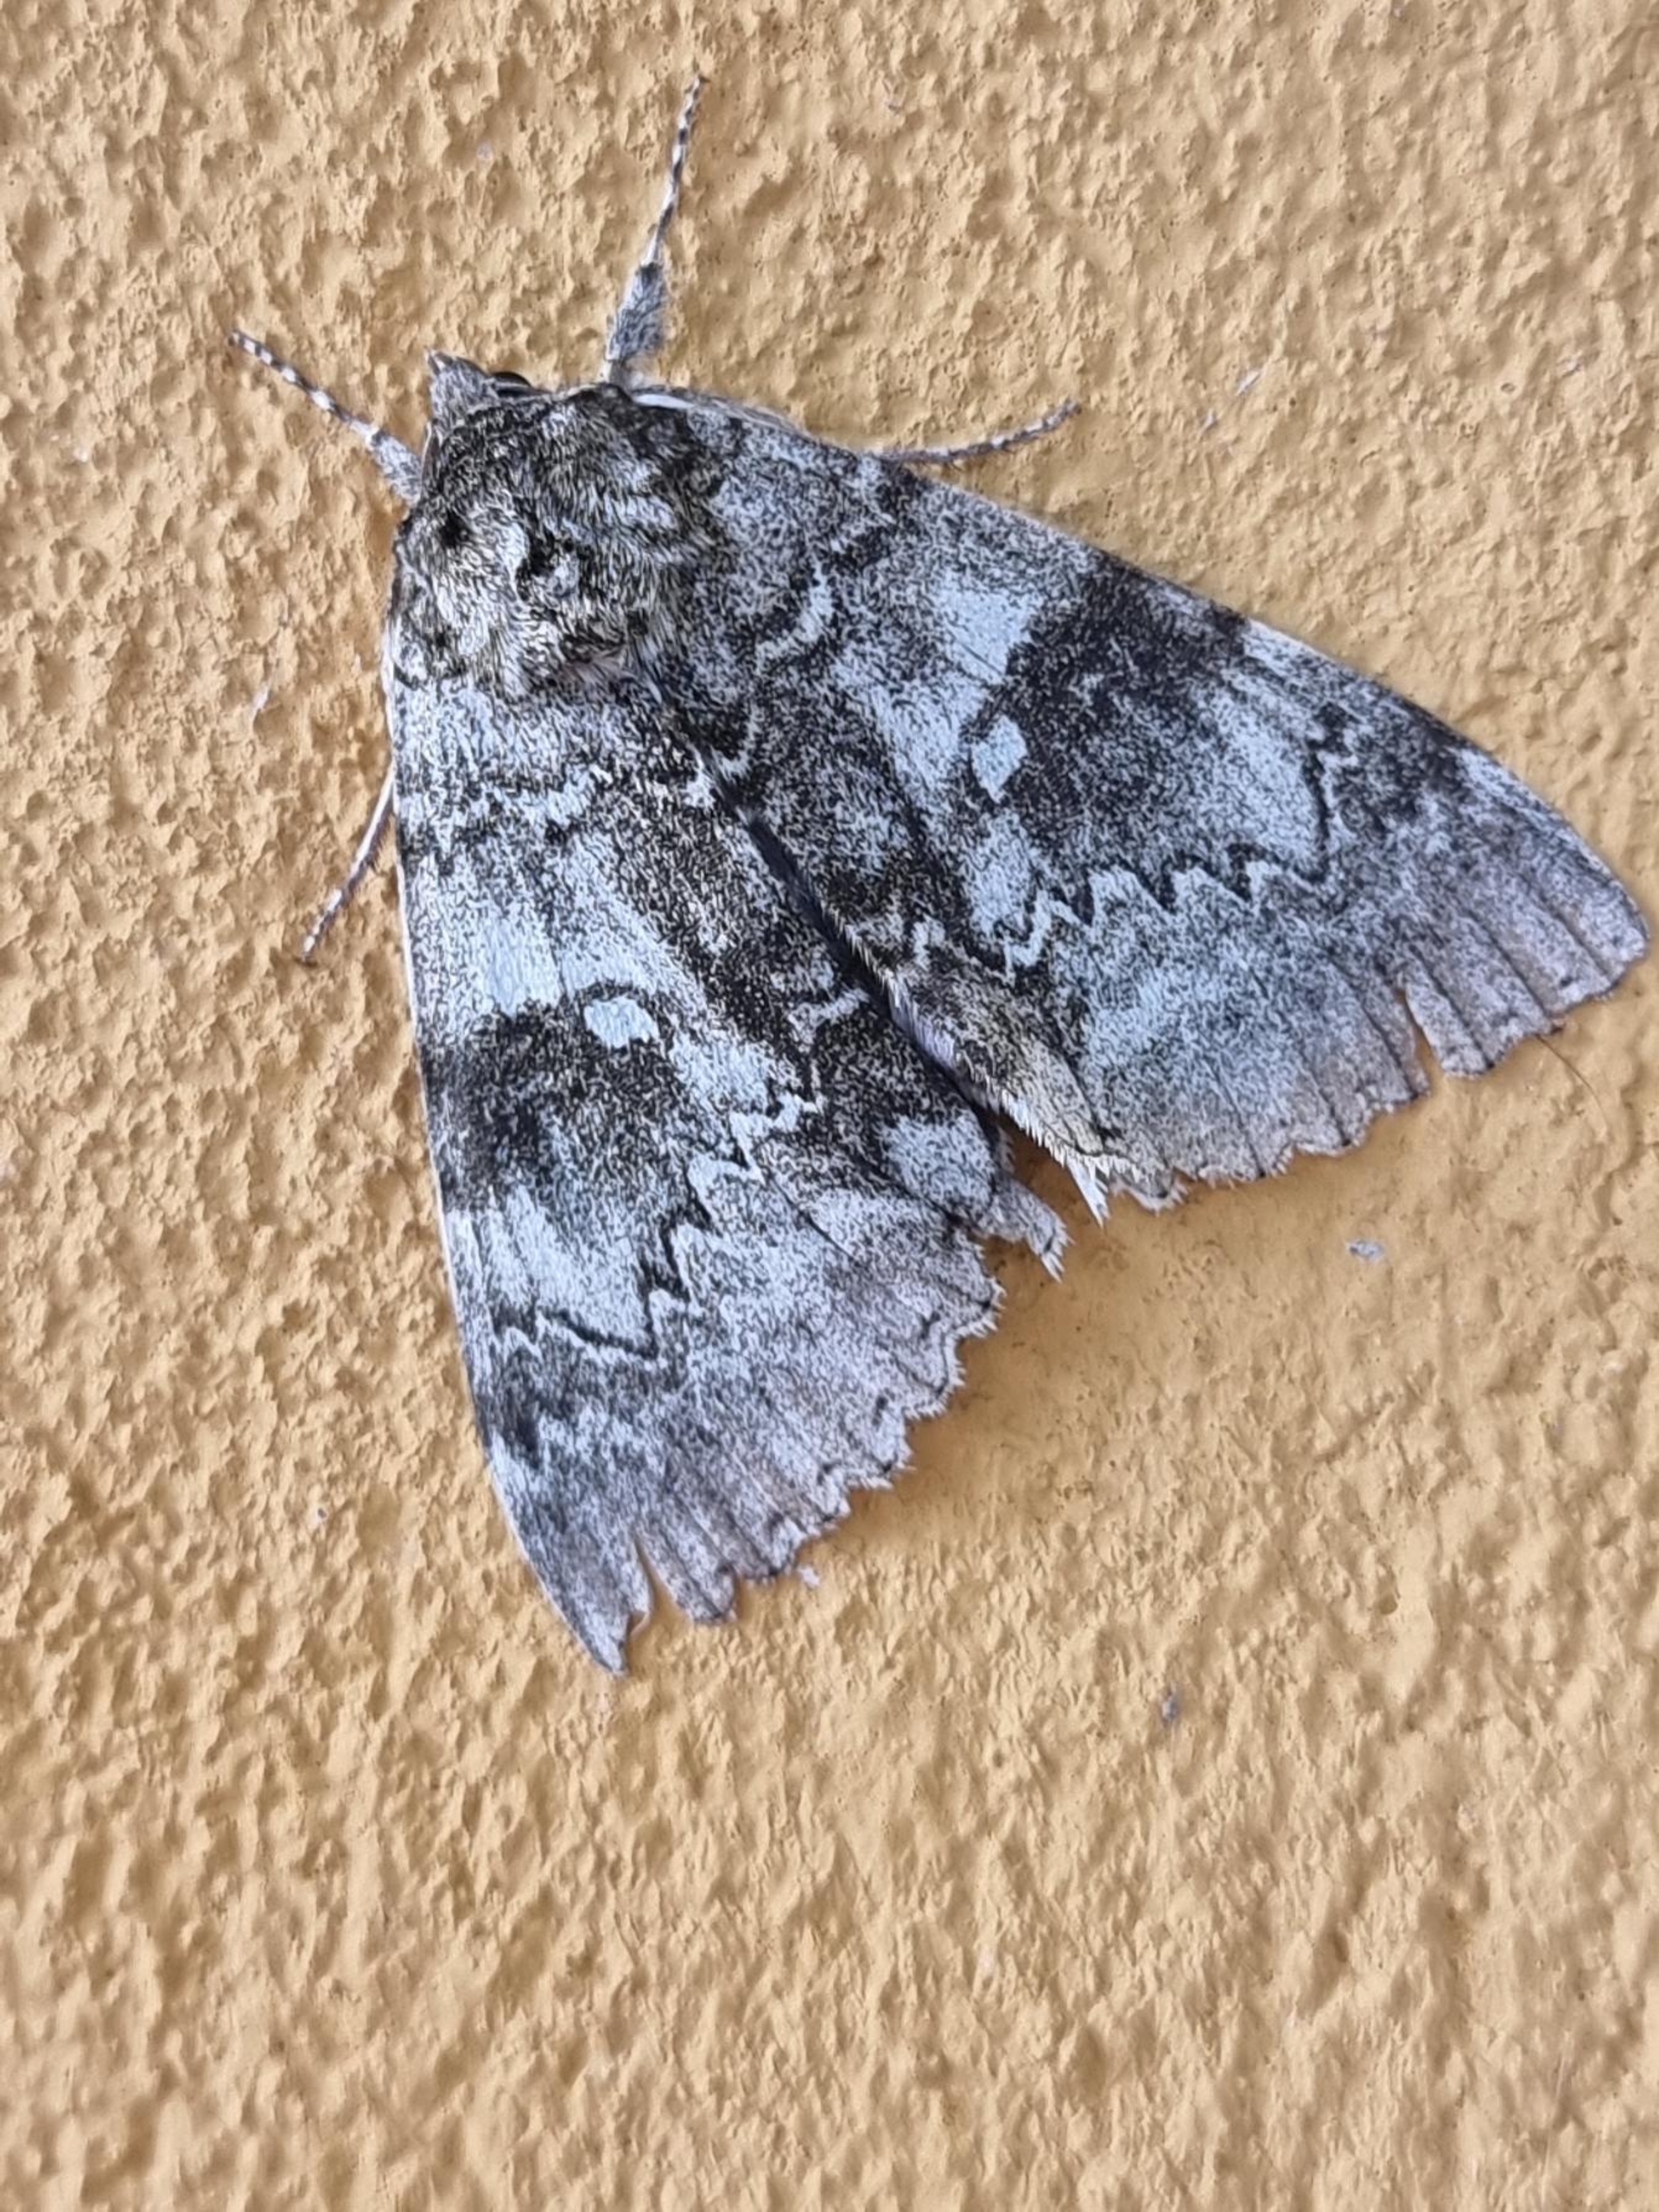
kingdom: Animalia
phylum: Arthropoda
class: Insecta
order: Lepidoptera
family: Erebidae
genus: Catocala
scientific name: Catocala fraxini
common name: Blåt ordensbånd
